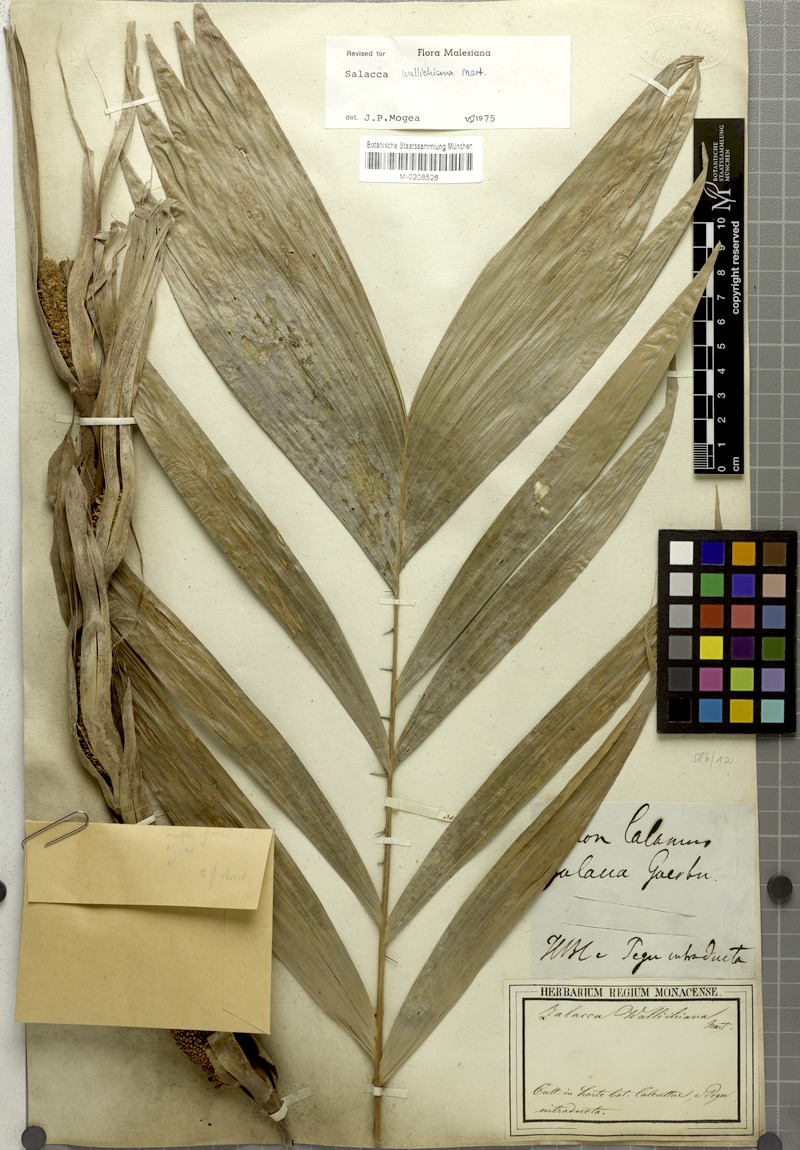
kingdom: Plantae
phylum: Tracheophyta
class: Liliopsida
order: Arecales
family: Arecaceae
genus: Salacca
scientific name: Salacca wallichiana
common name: Rakum palm
